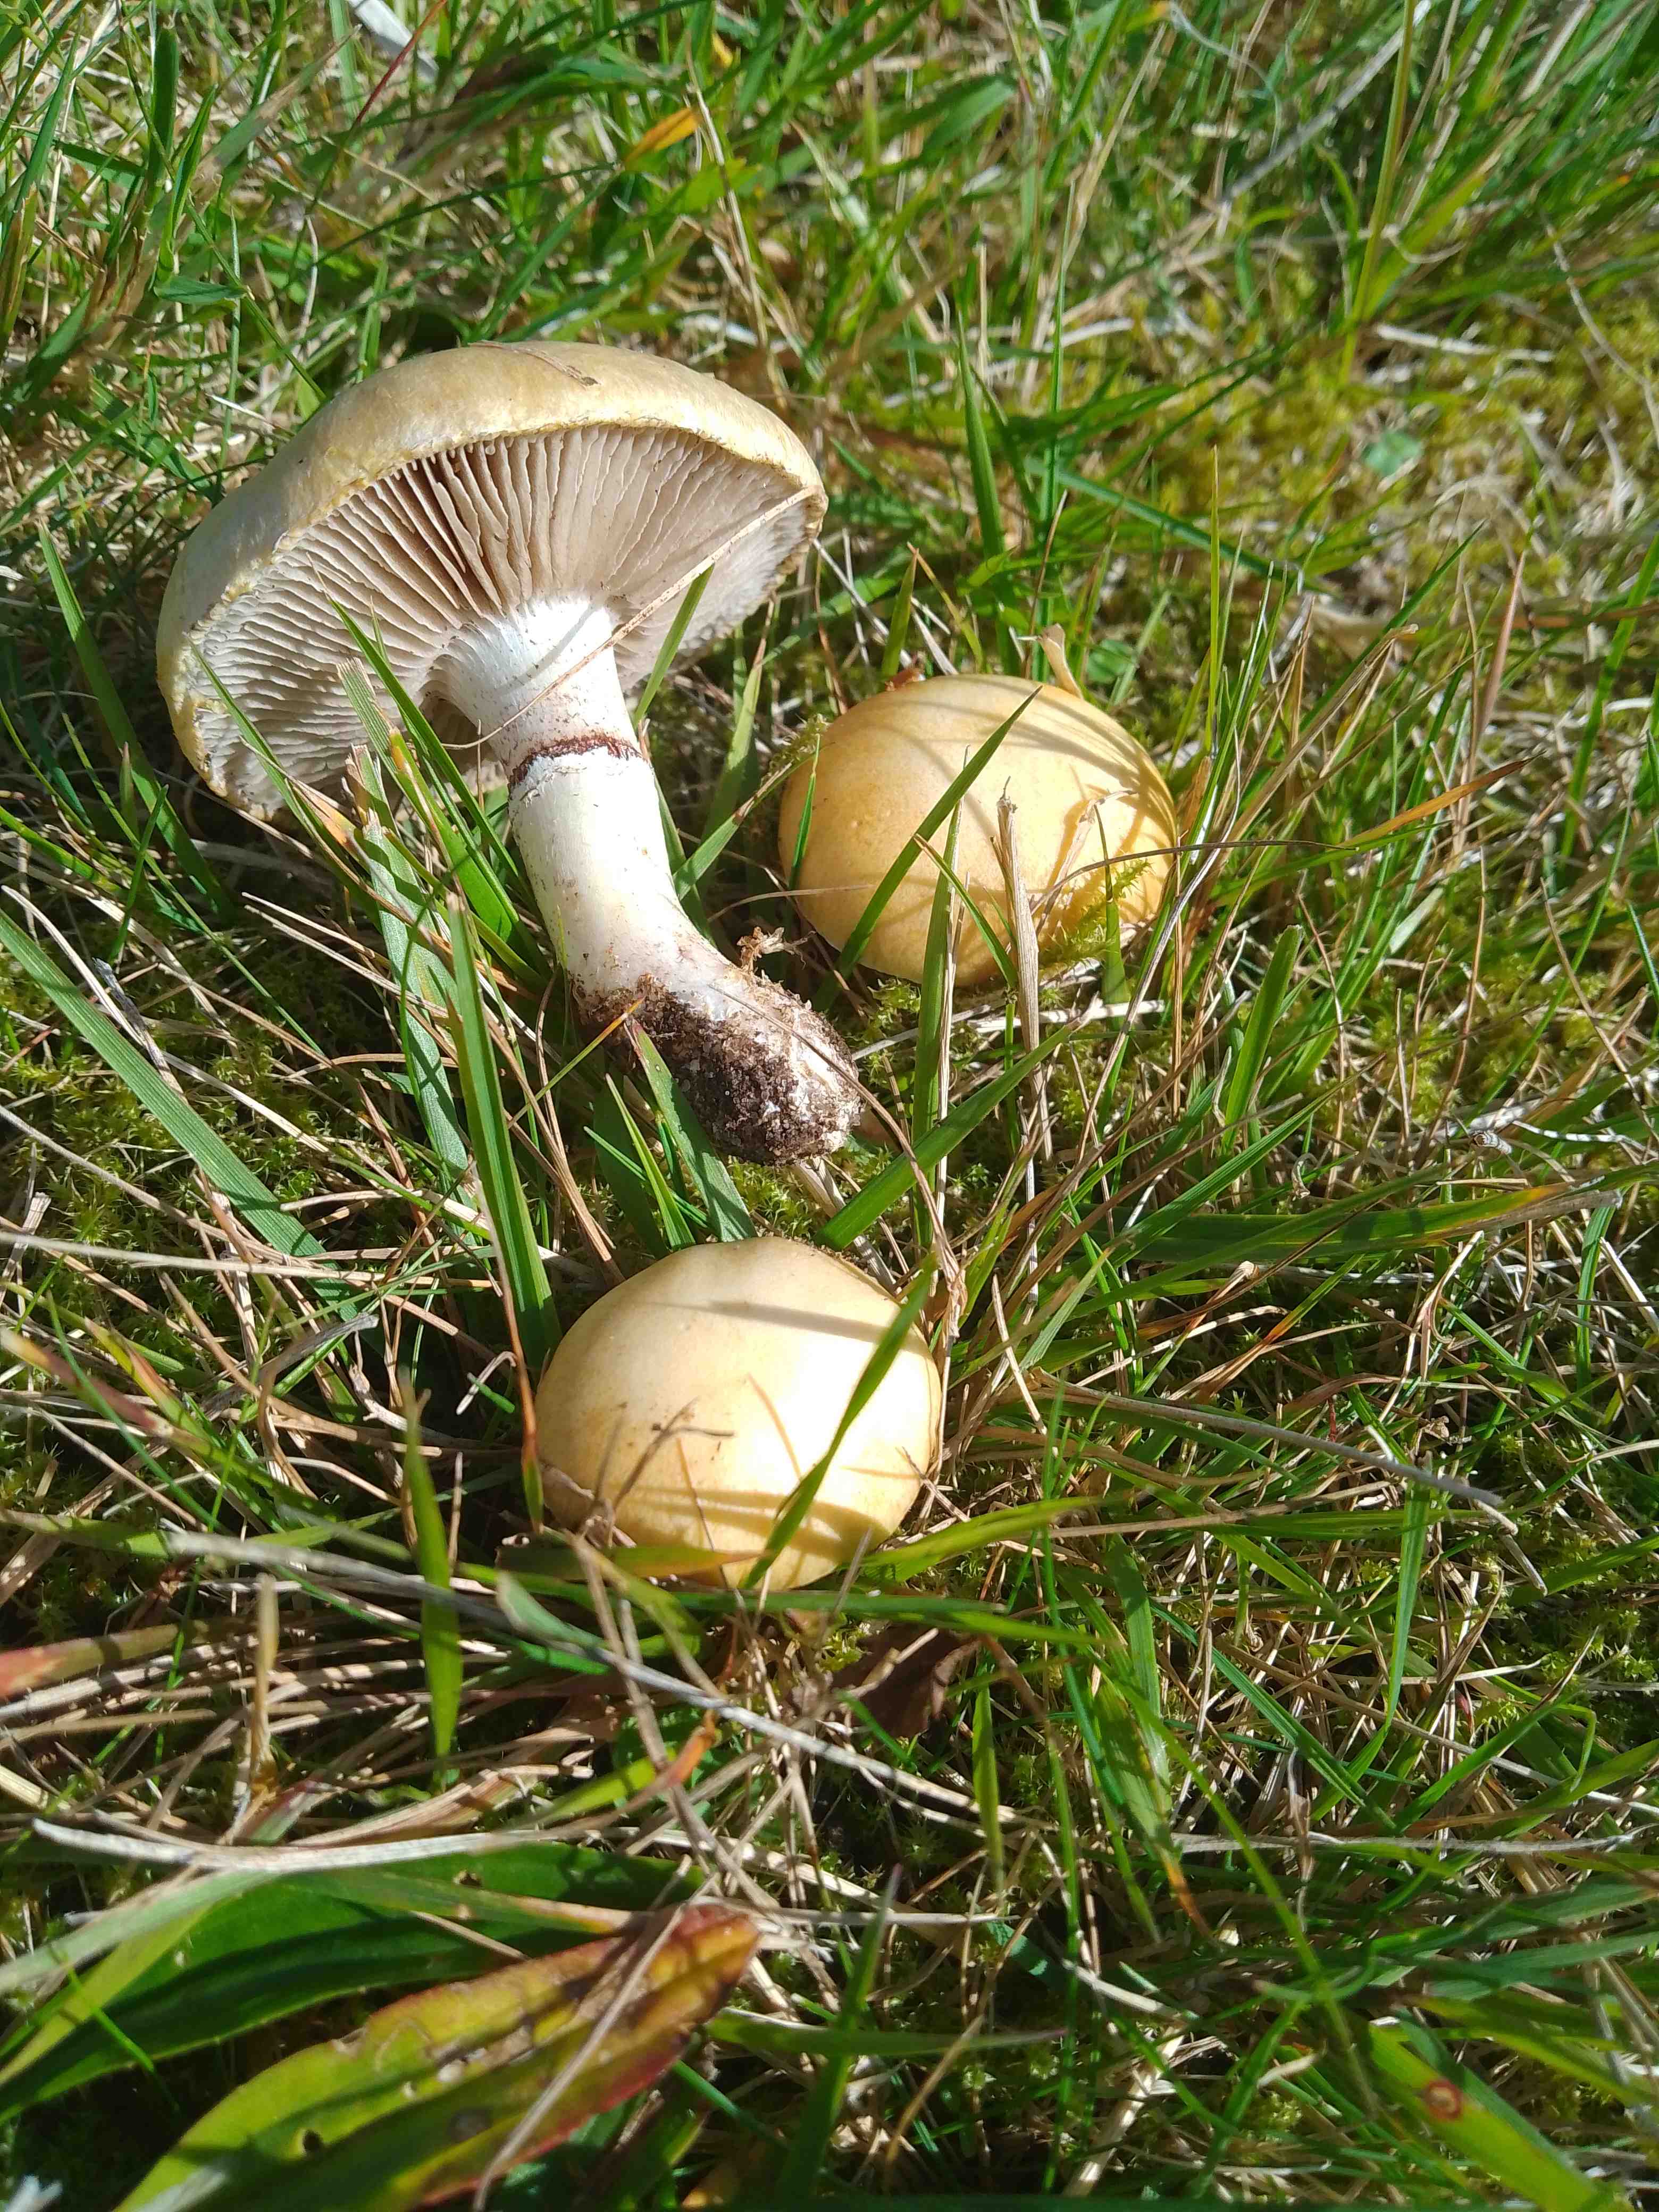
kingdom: Fungi
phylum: Basidiomycota
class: Agaricomycetes
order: Agaricales
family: Hymenogastraceae
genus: Psilocybe
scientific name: Psilocybe coronilla
